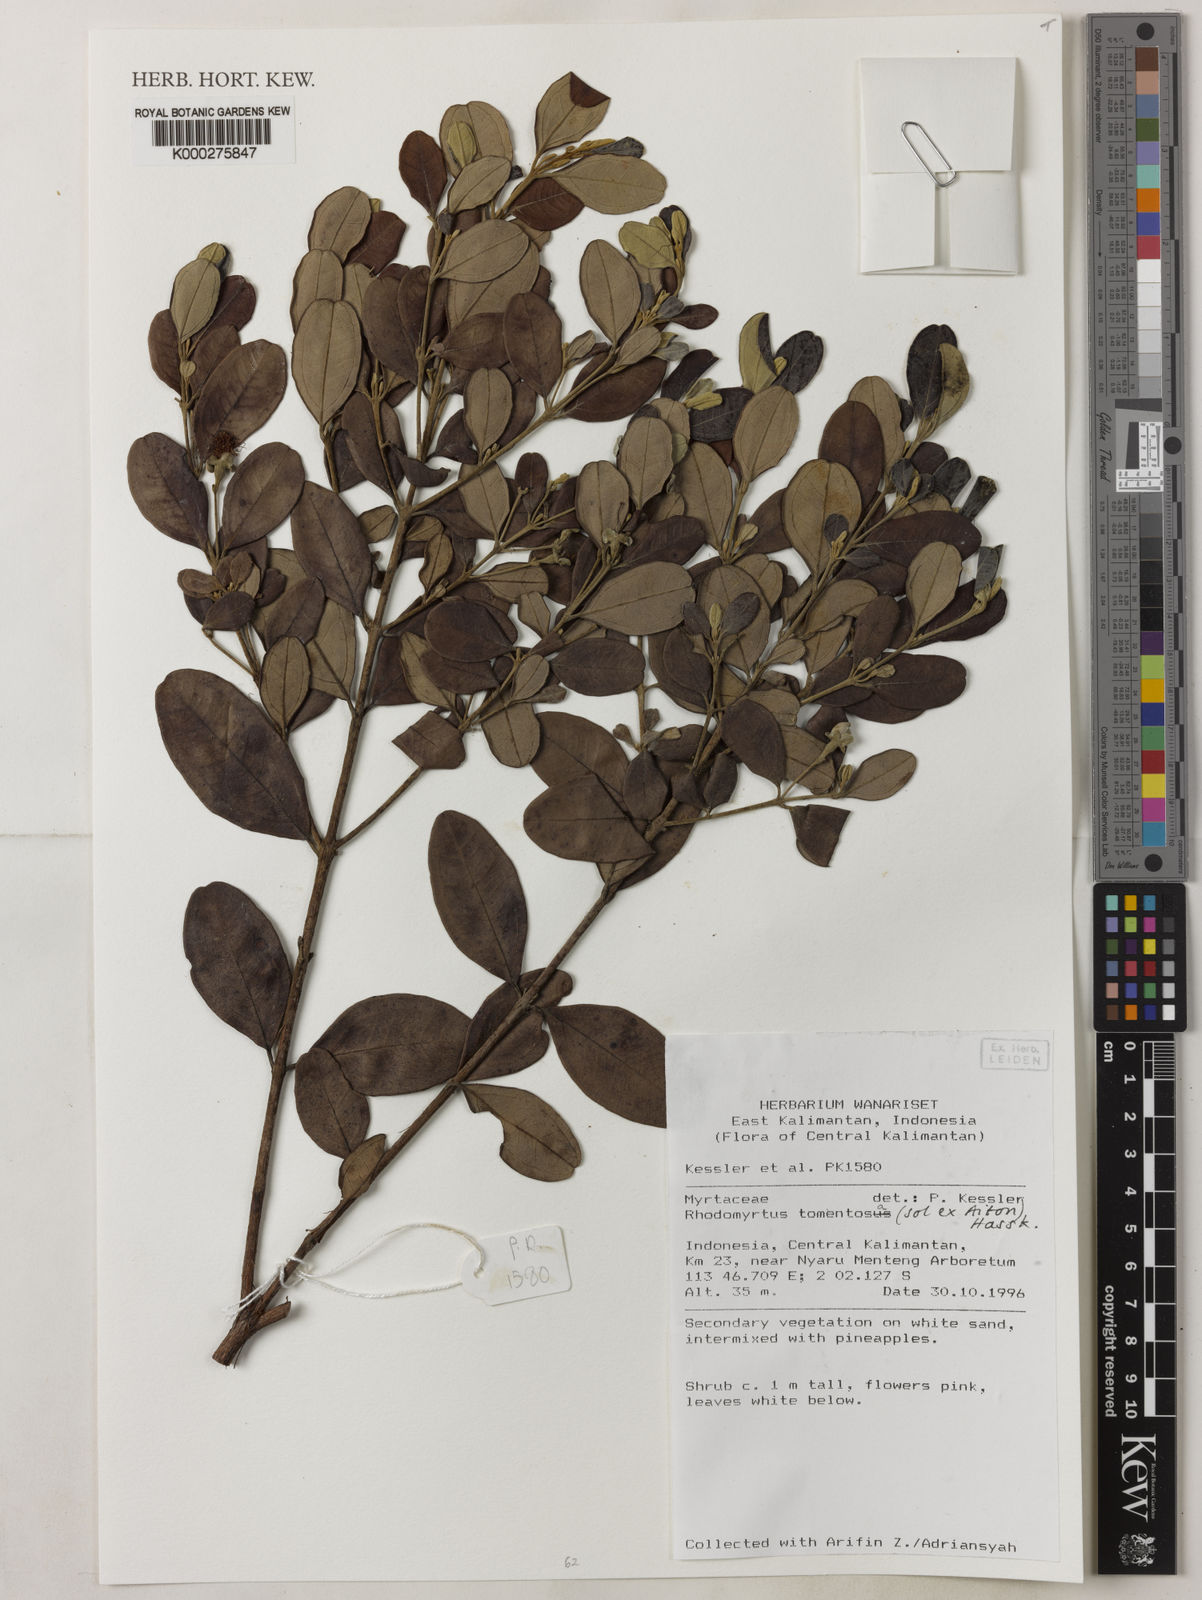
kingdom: Plantae
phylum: Tracheophyta
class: Magnoliopsida
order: Myrtales
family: Myrtaceae
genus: Rhodomyrtus
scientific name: Rhodomyrtus tomentosa
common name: Rose myrtle
